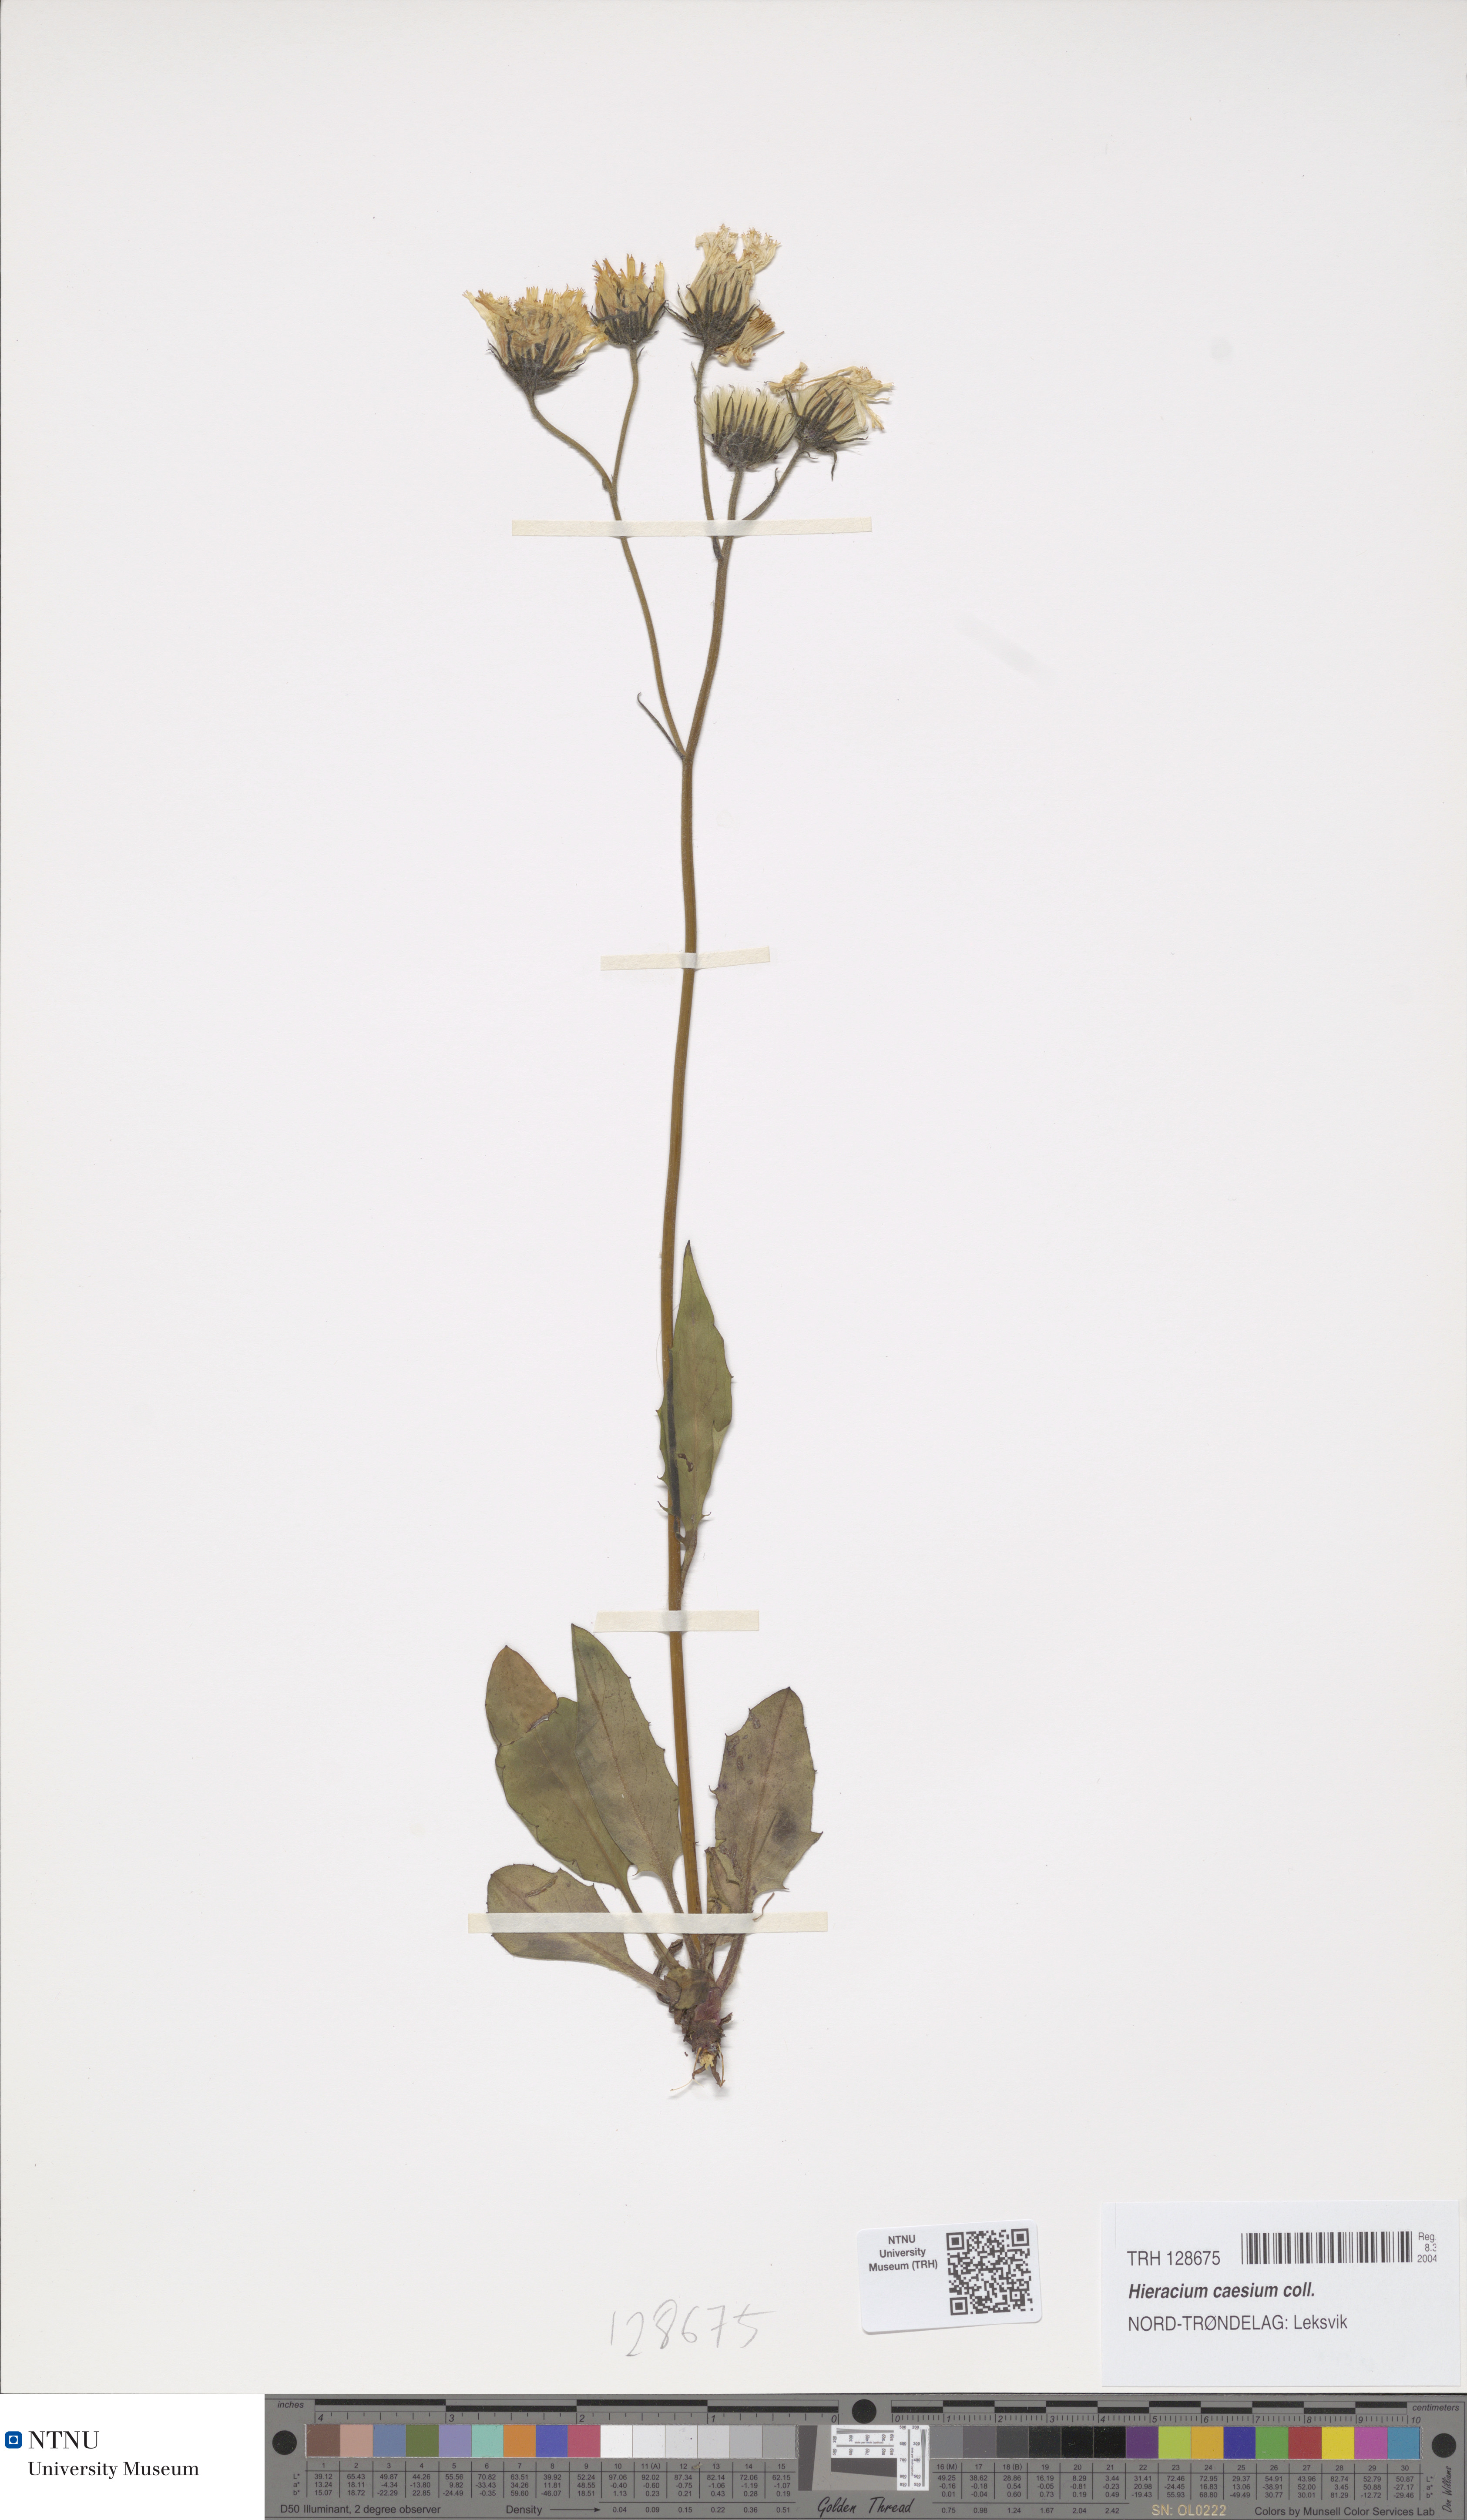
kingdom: Plantae
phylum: Tracheophyta
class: Magnoliopsida
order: Asterales
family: Asteraceae
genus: Hieracium
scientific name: Hieracium caesium
